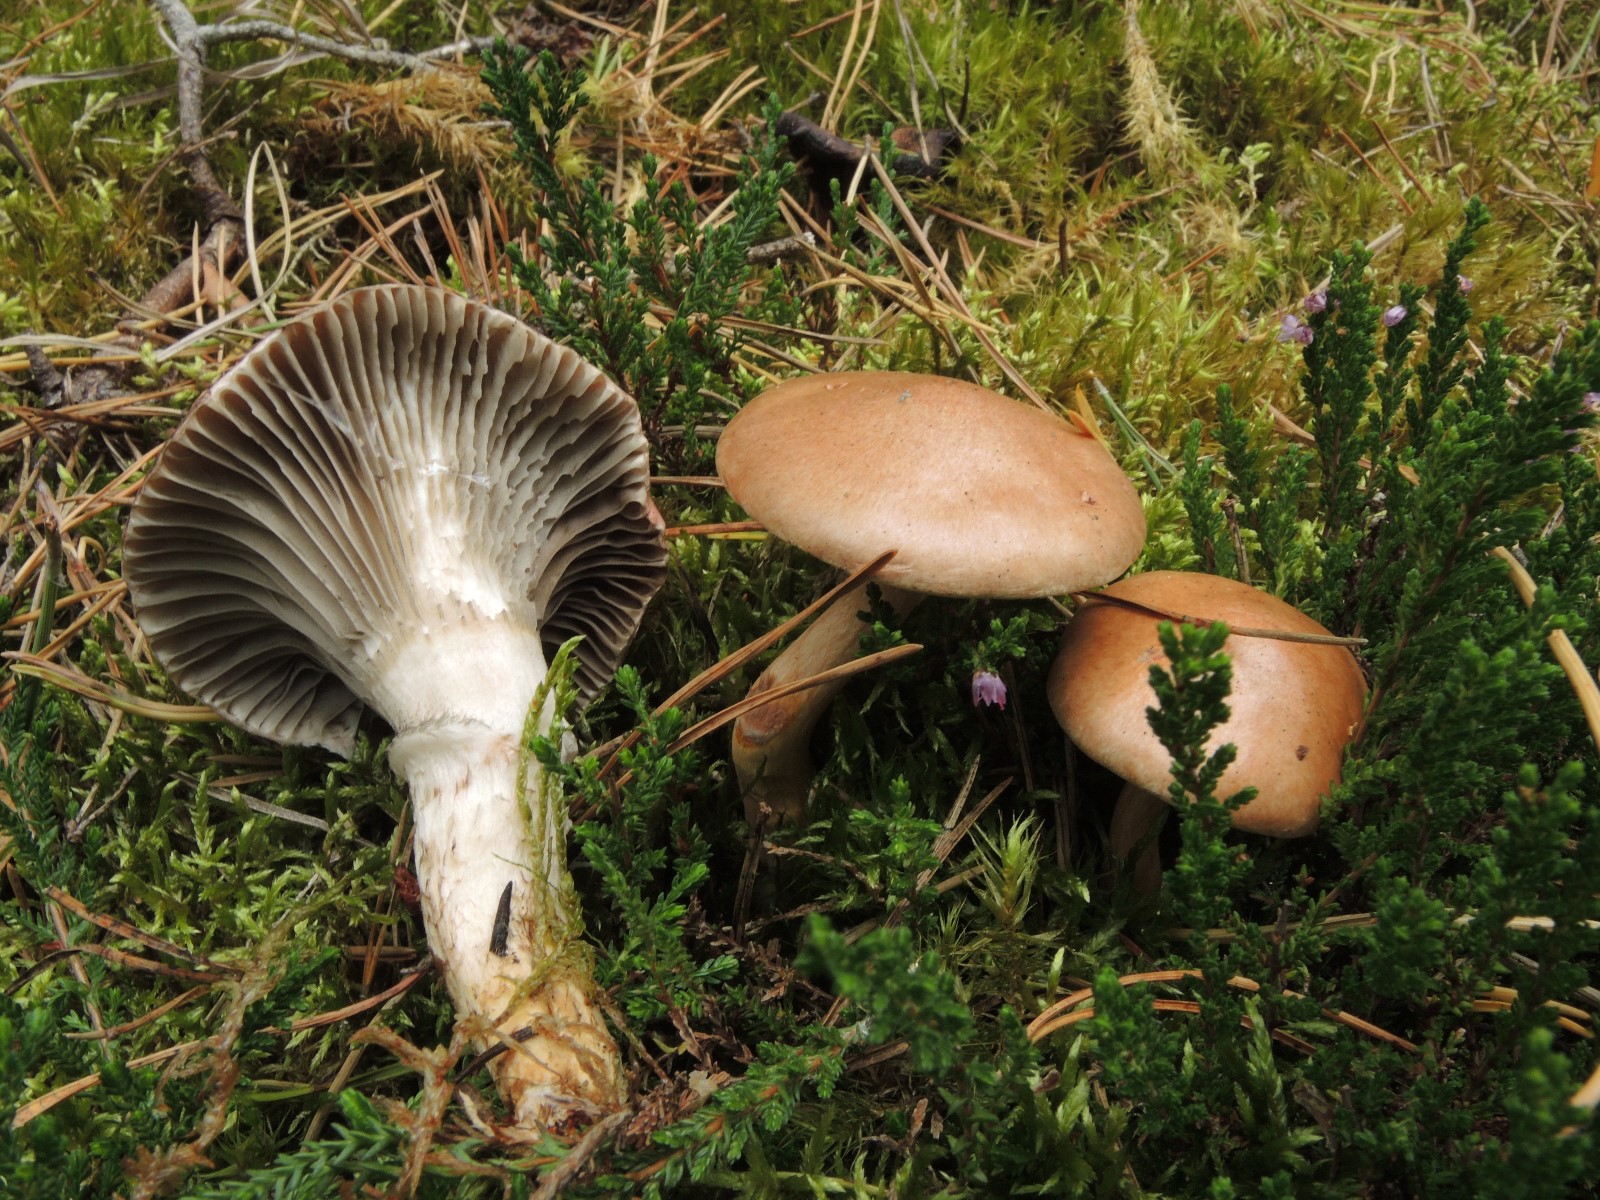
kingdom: Fungi
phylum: Basidiomycota
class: Agaricomycetes
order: Boletales
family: Gomphidiaceae
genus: Gomphidius
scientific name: Gomphidius roseus
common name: rosenrød slimslør
